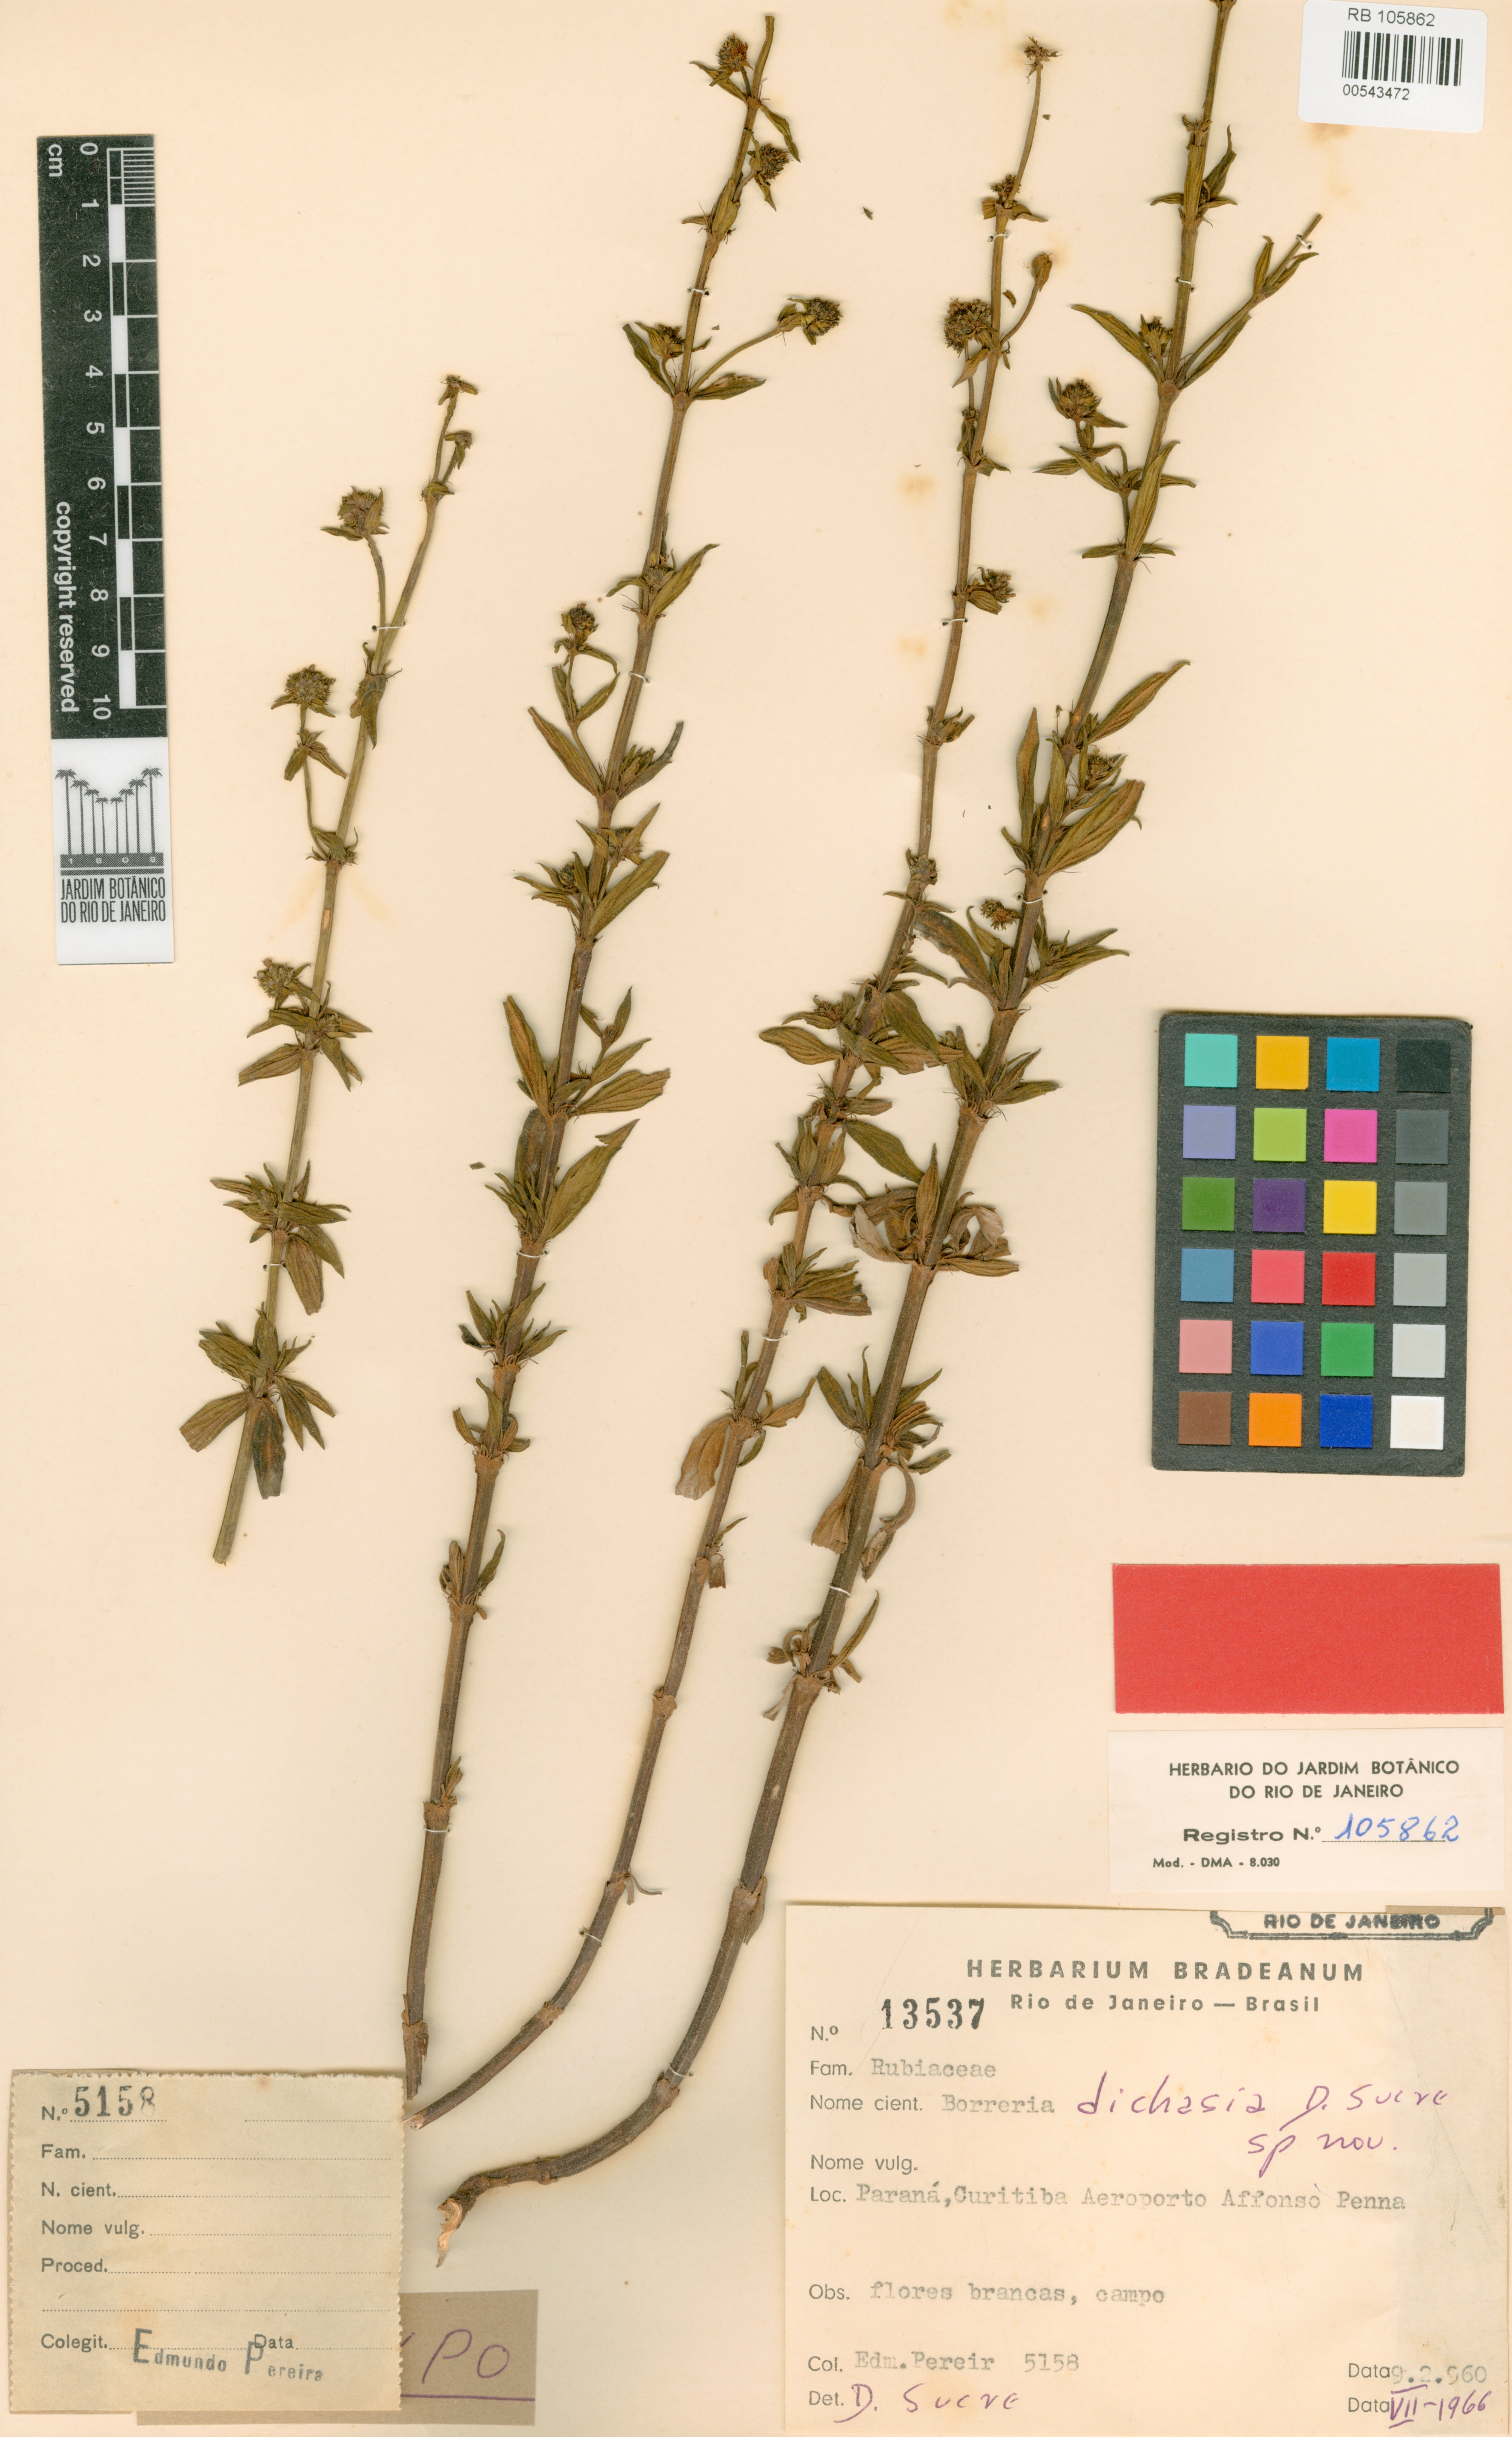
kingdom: Plantae
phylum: Tracheophyta
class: Magnoliopsida
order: Gentianales
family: Rubiaceae
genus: Galianthe
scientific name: Galianthe cymosa
